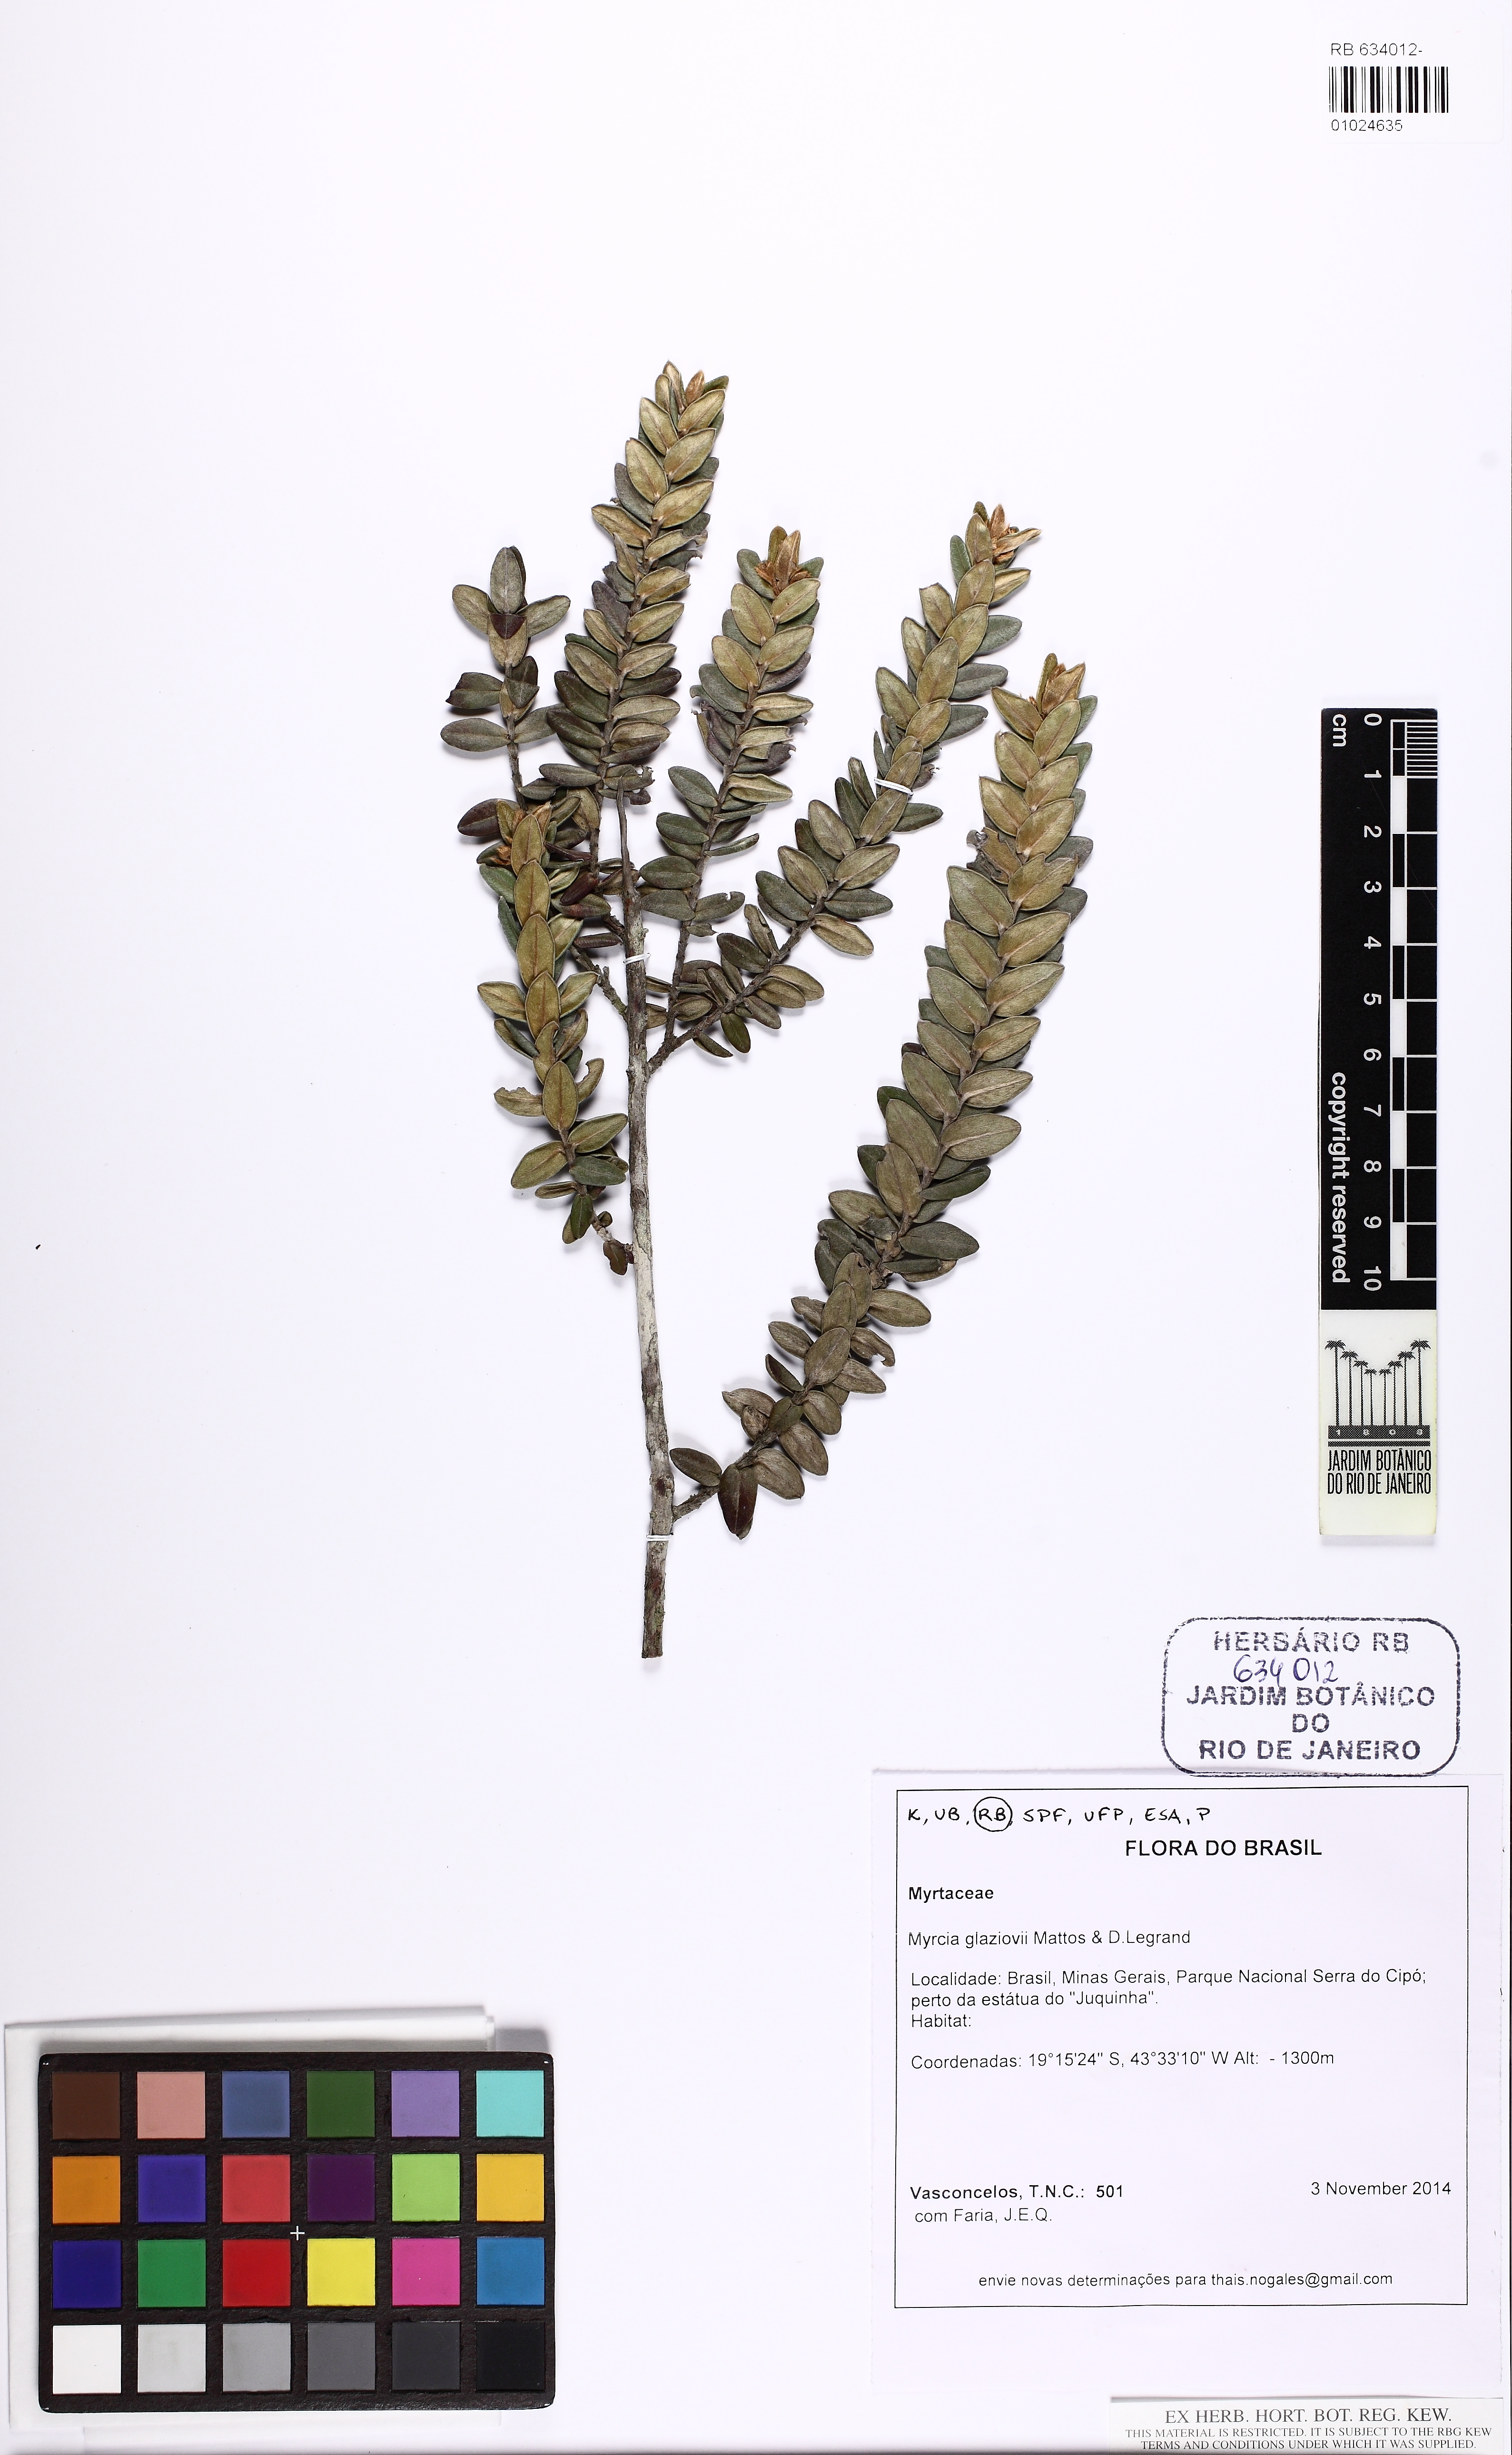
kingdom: Plantae
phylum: Tracheophyta
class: Magnoliopsida
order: Myrtales
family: Myrtaceae
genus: Myrcia
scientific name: Myrcia glaziovii
